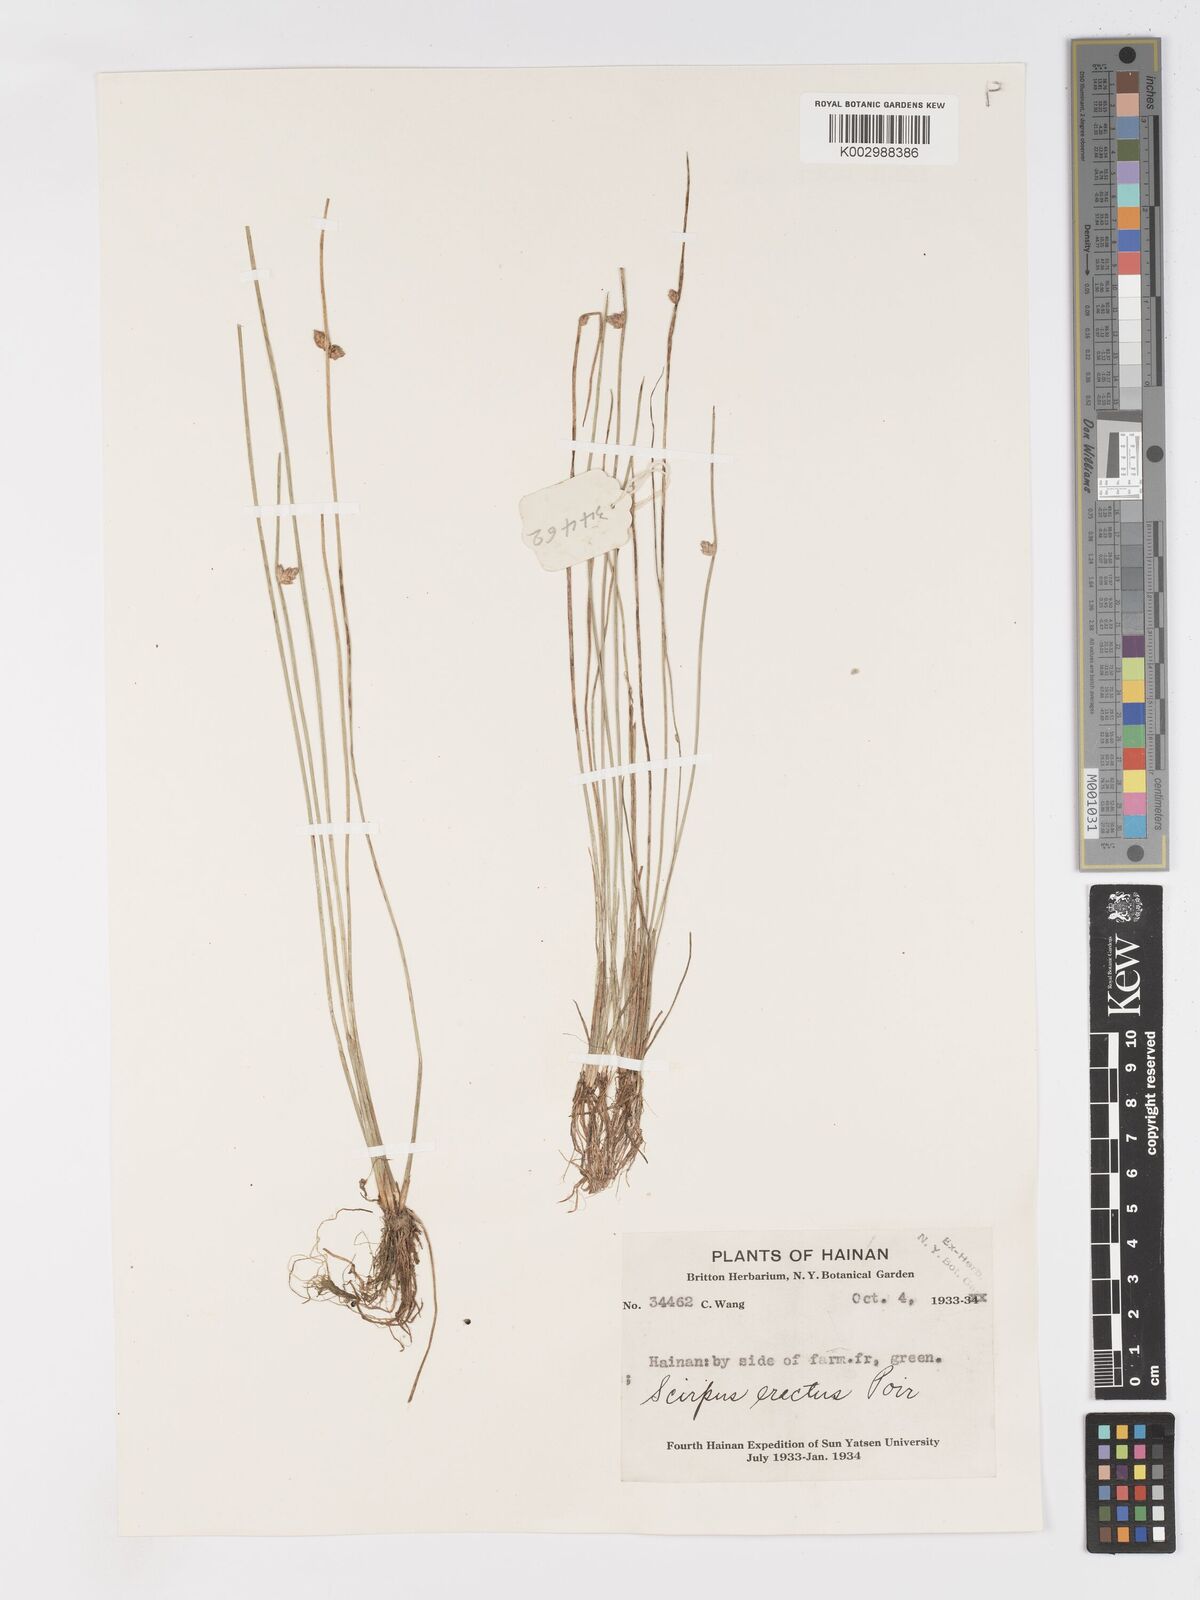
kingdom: Plantae
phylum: Tracheophyta
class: Liliopsida
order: Poales
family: Cyperaceae
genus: Schoenoplectiella
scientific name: Schoenoplectiella erecta
